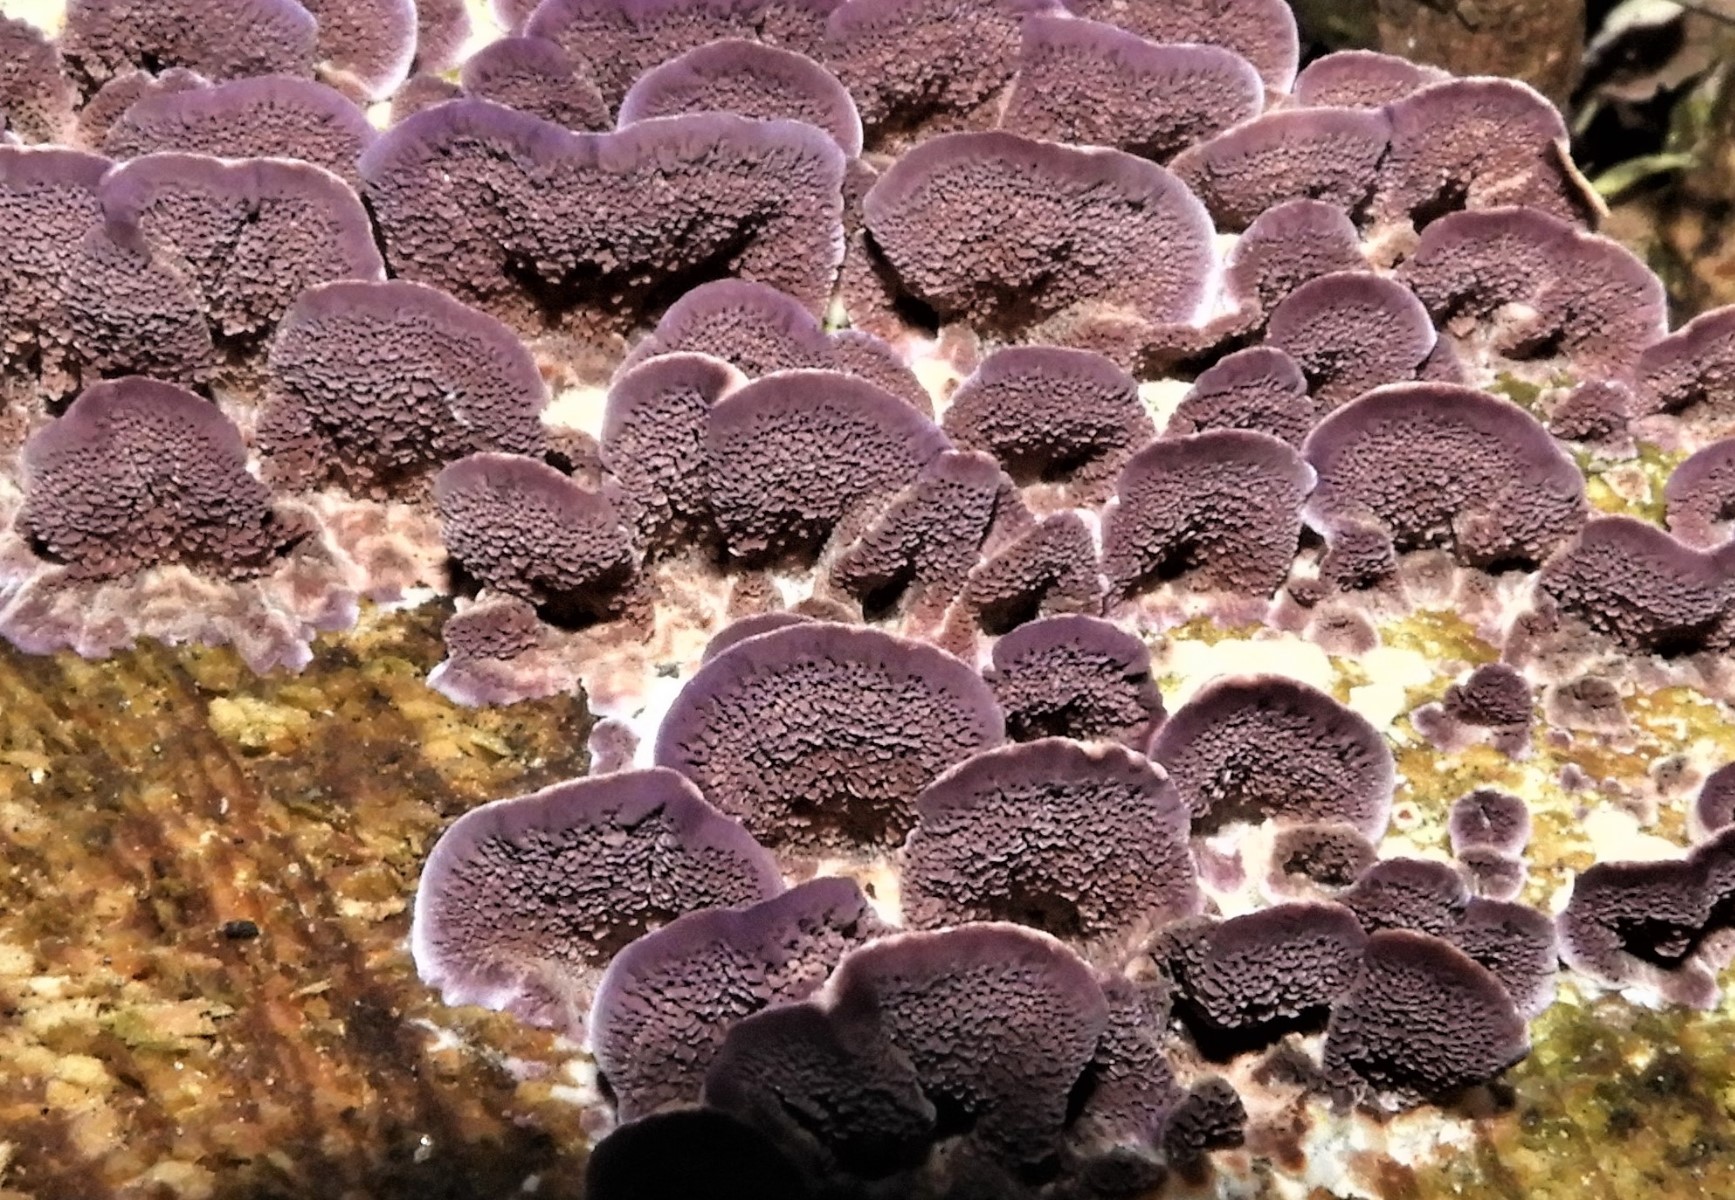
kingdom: Fungi
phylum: Basidiomycota
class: Agaricomycetes
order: Hymenochaetales
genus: Trichaptum
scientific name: Trichaptum abietinum
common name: almindelig violporesvamp
